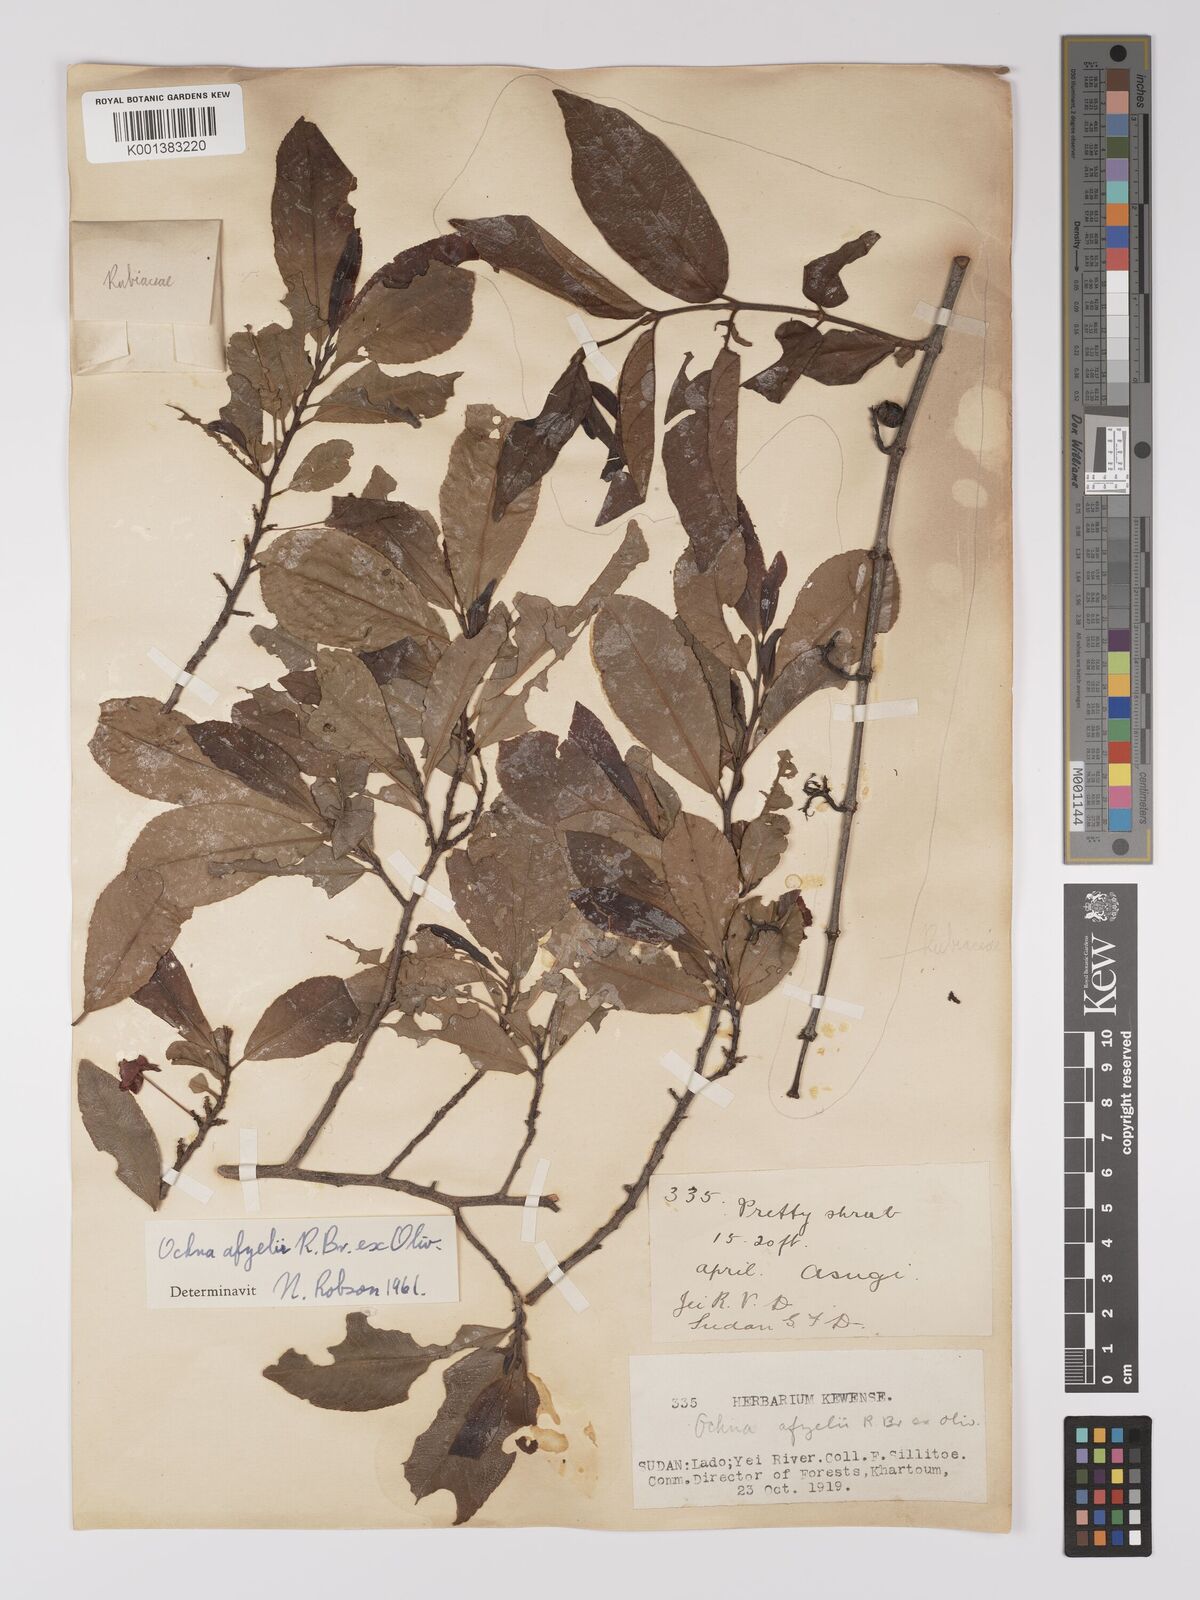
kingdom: Plantae
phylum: Tracheophyta
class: Magnoliopsida
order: Malpighiales
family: Ochnaceae
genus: Ochna
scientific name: Ochna afzelii
